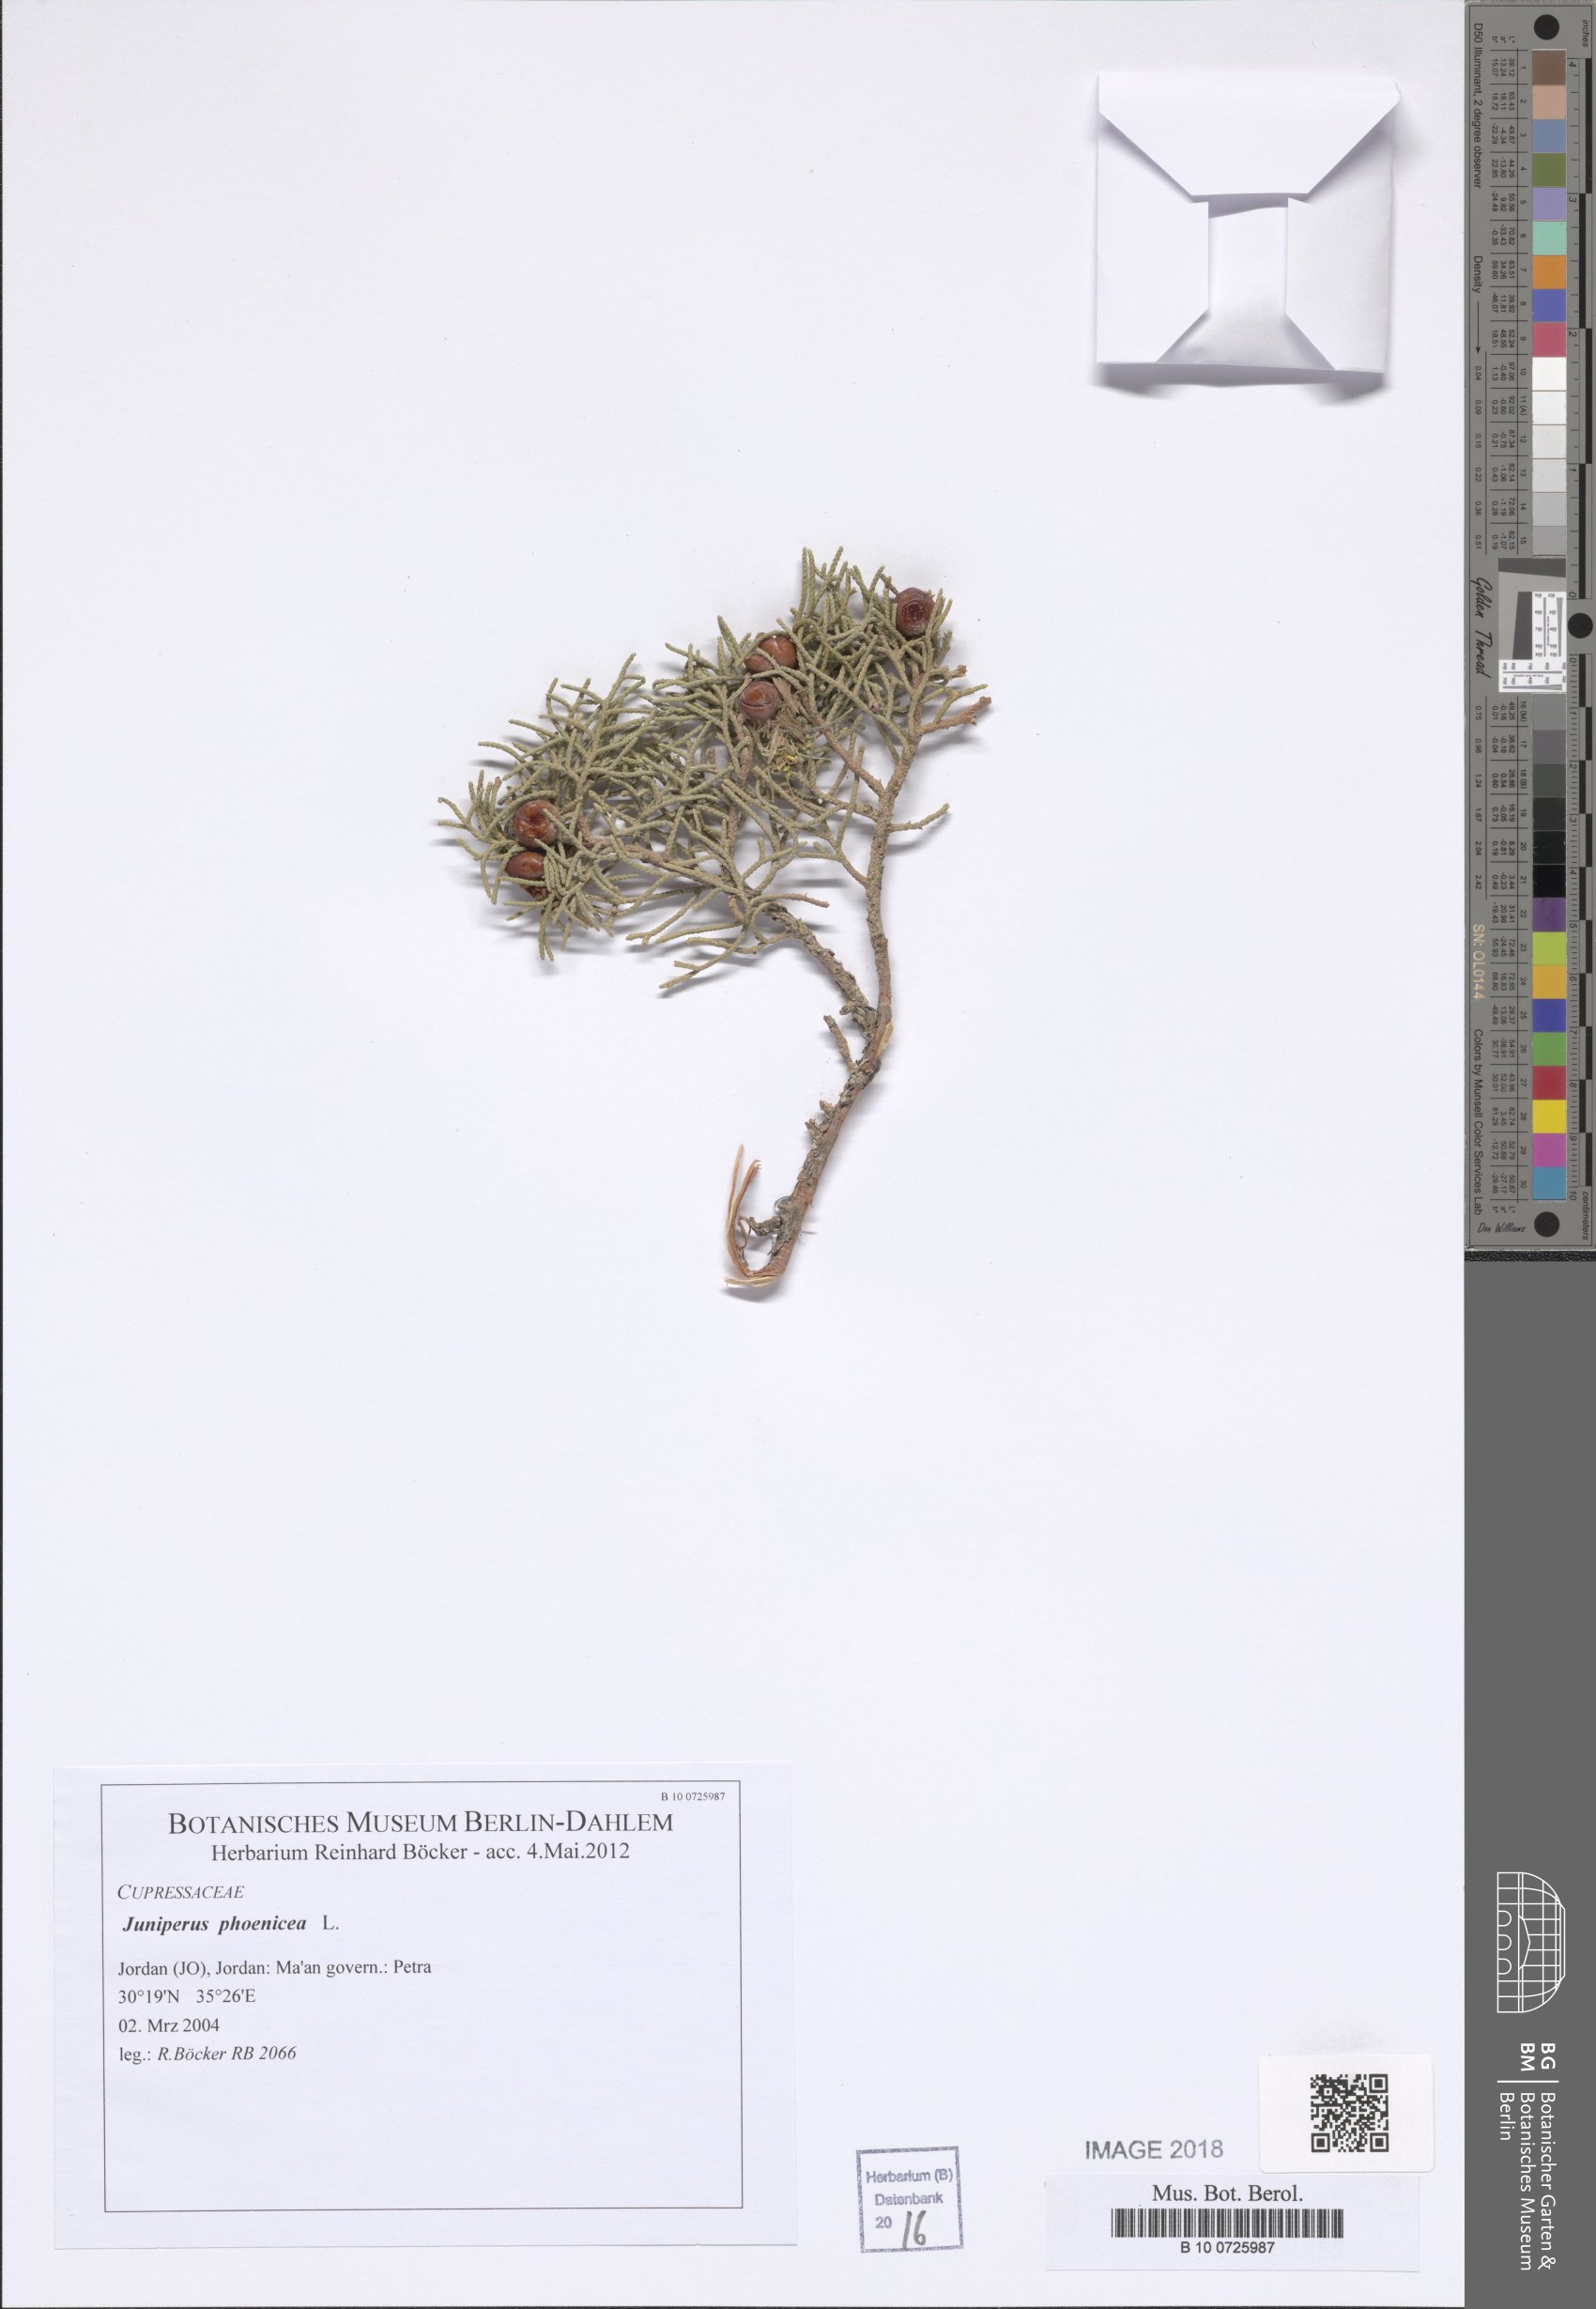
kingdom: Plantae
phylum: Tracheophyta
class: Pinopsida
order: Pinales
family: Cupressaceae
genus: Juniperus
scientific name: Juniperus phoenicea
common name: Phoenician juniper
